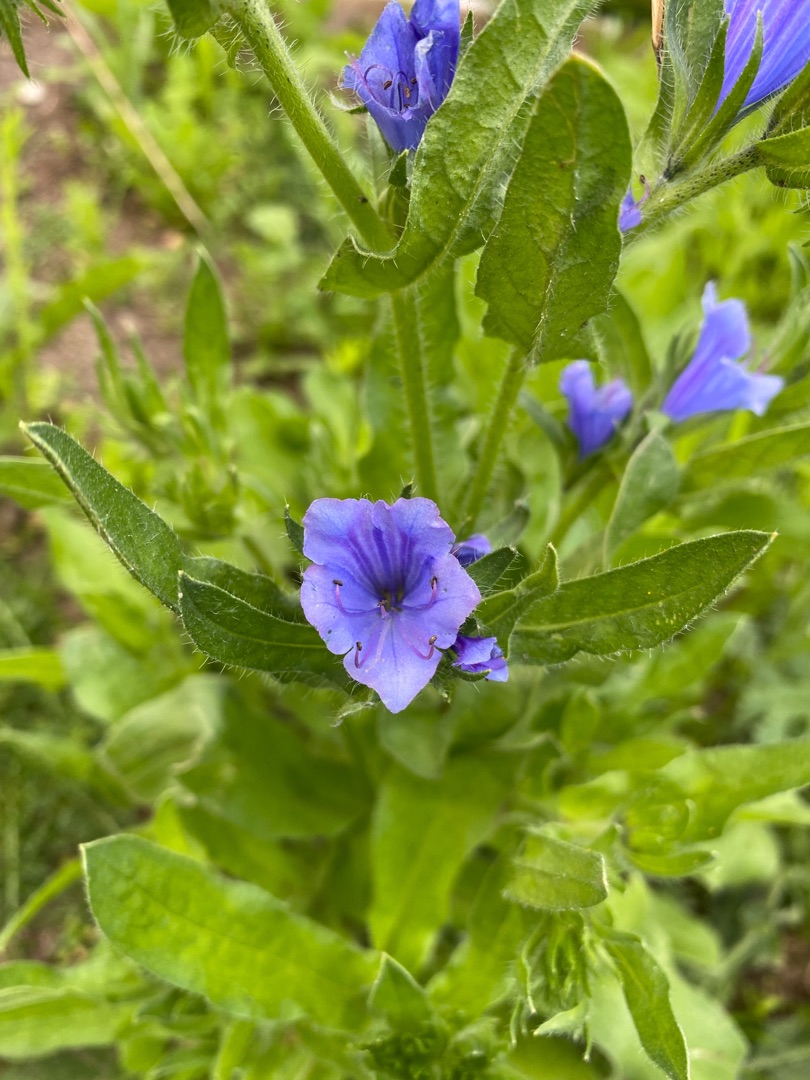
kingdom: Plantae
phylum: Tracheophyta
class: Magnoliopsida
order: Boraginales
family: Boraginaceae
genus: Echium
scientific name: Echium plantagineum
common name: Vejbred-slangehoved
